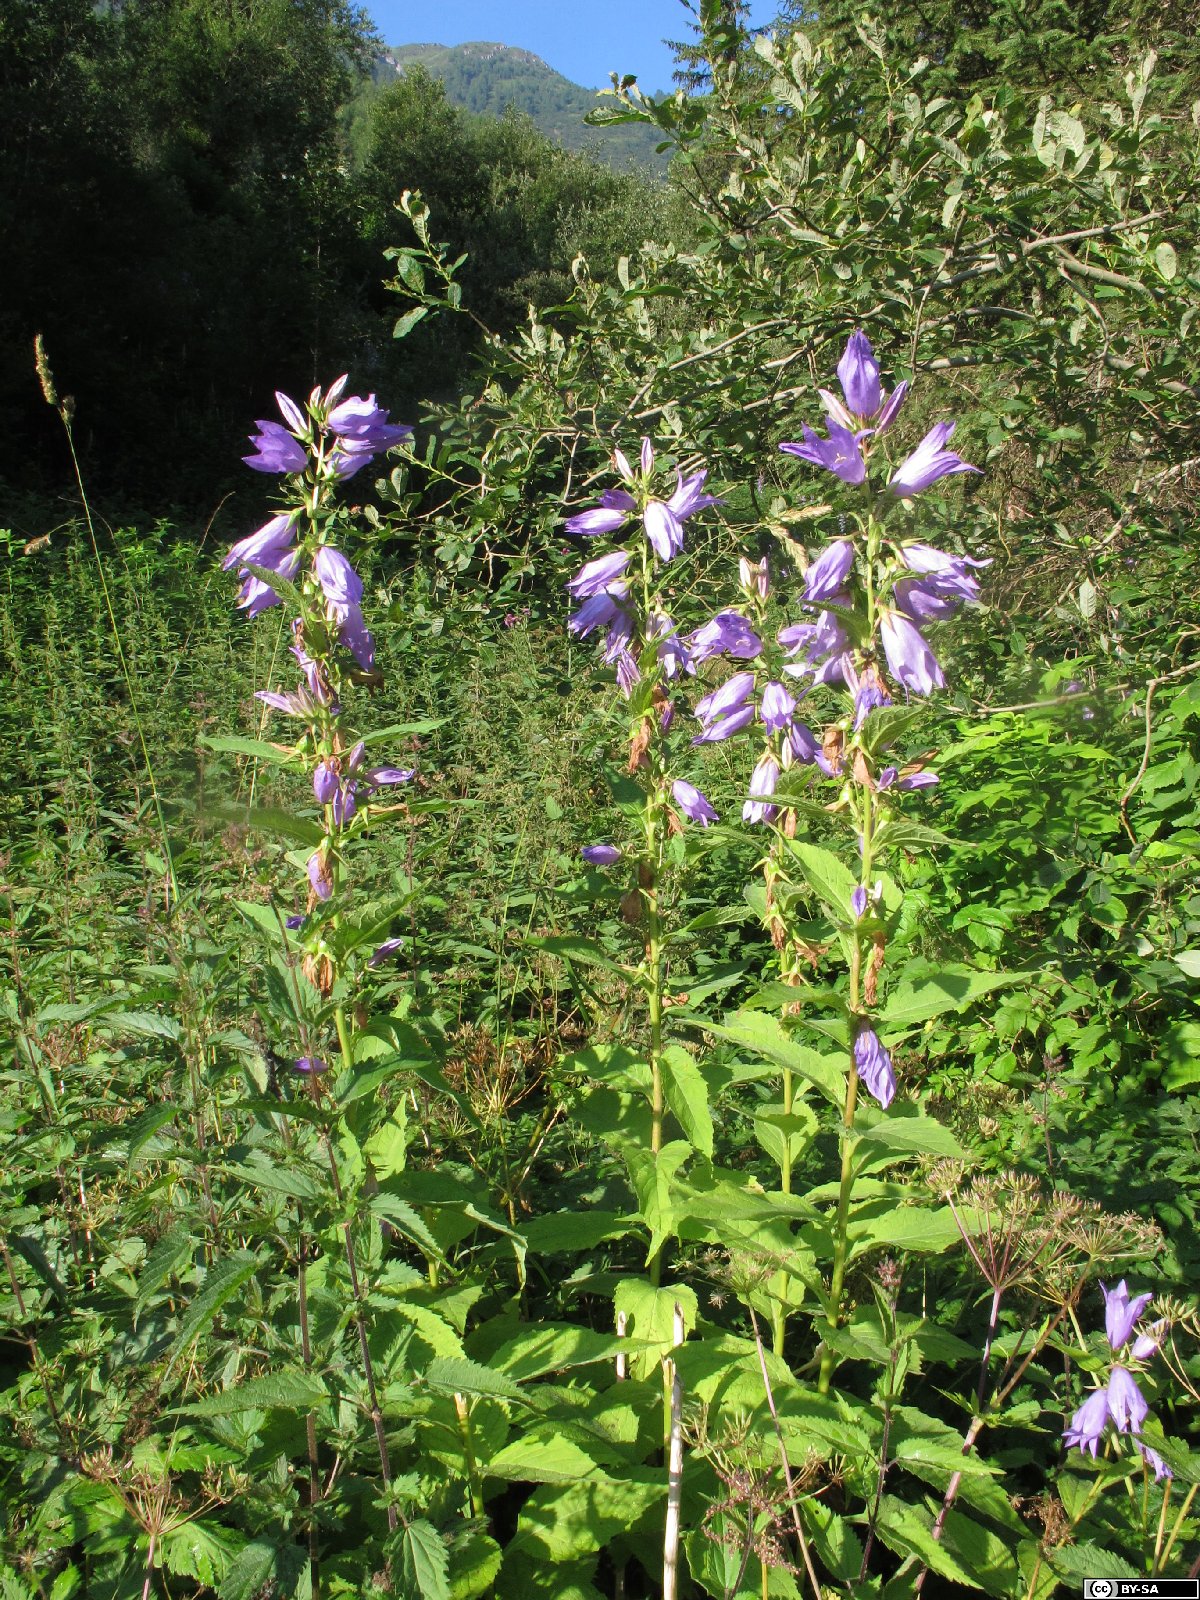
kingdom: Plantae
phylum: Tracheophyta
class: Magnoliopsida
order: Asterales
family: Campanulaceae
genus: Campanula
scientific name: Campanula latifolia
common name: Giant bellflower
